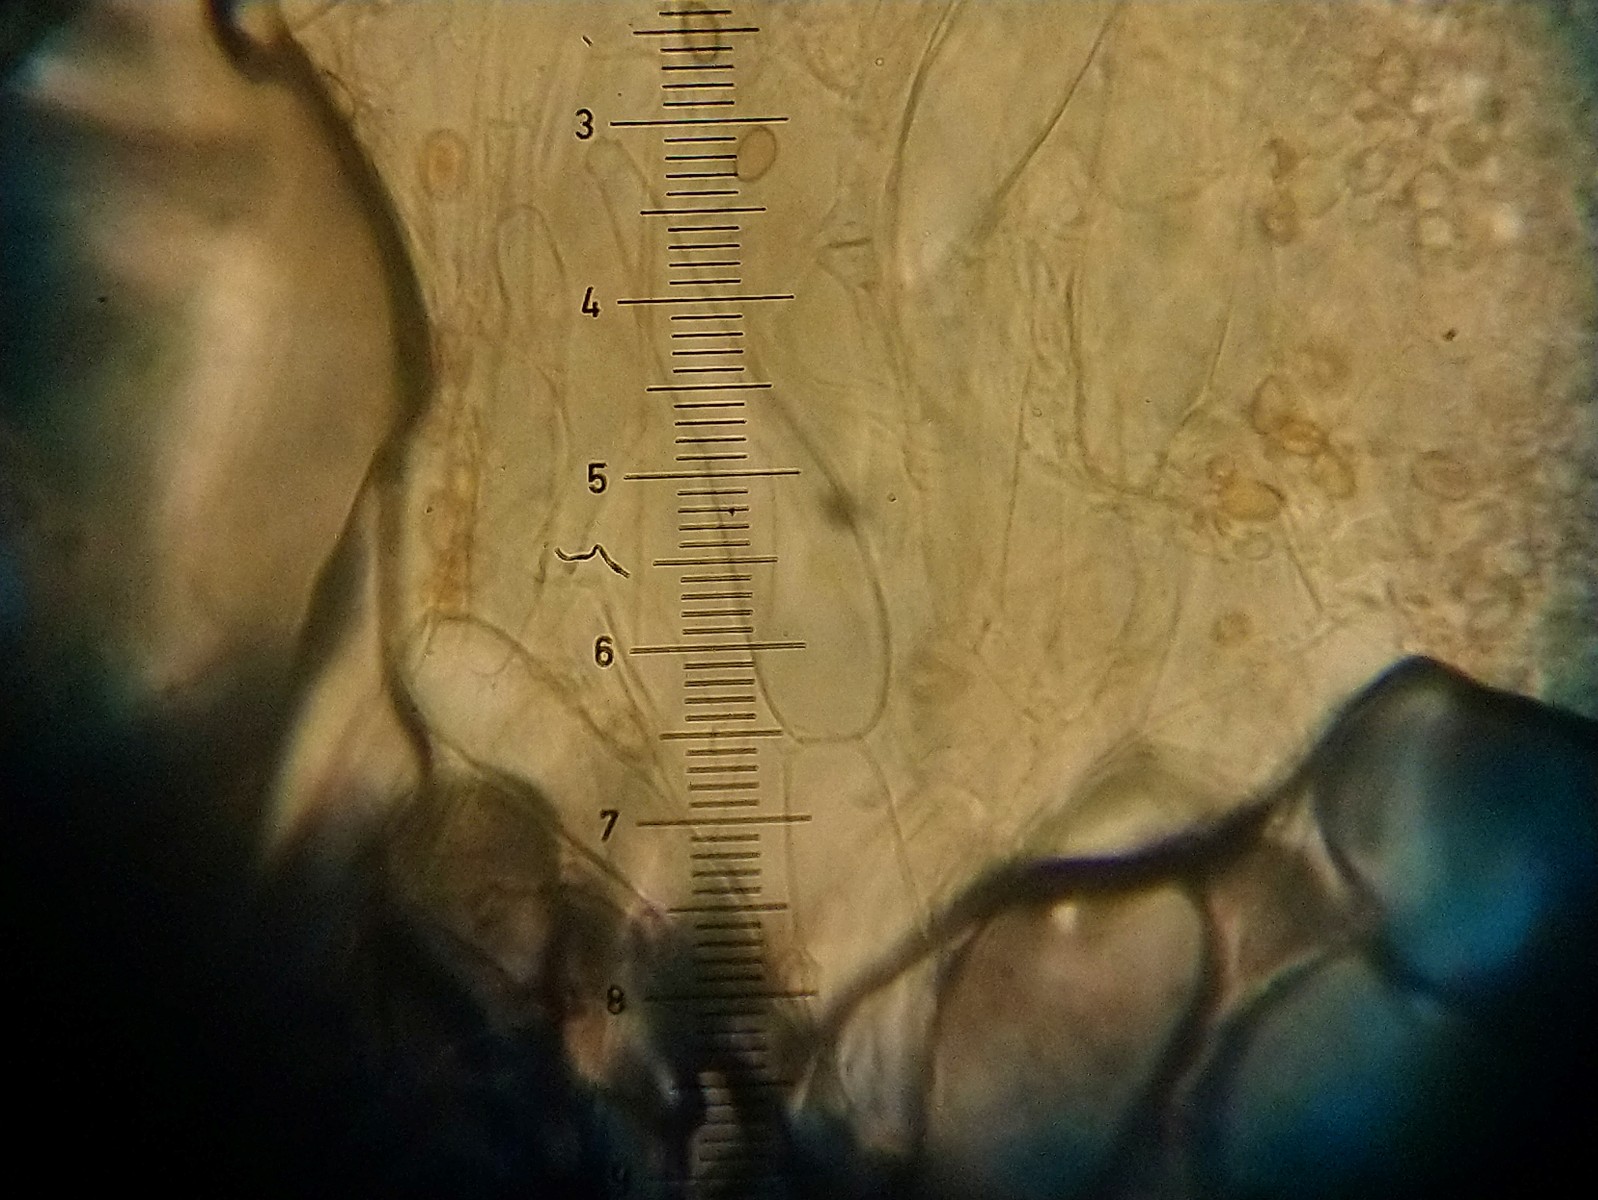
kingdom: Fungi
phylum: Basidiomycota
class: Agaricomycetes
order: Agaricales
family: Strophariaceae
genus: Agrocybe
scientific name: Agrocybe
